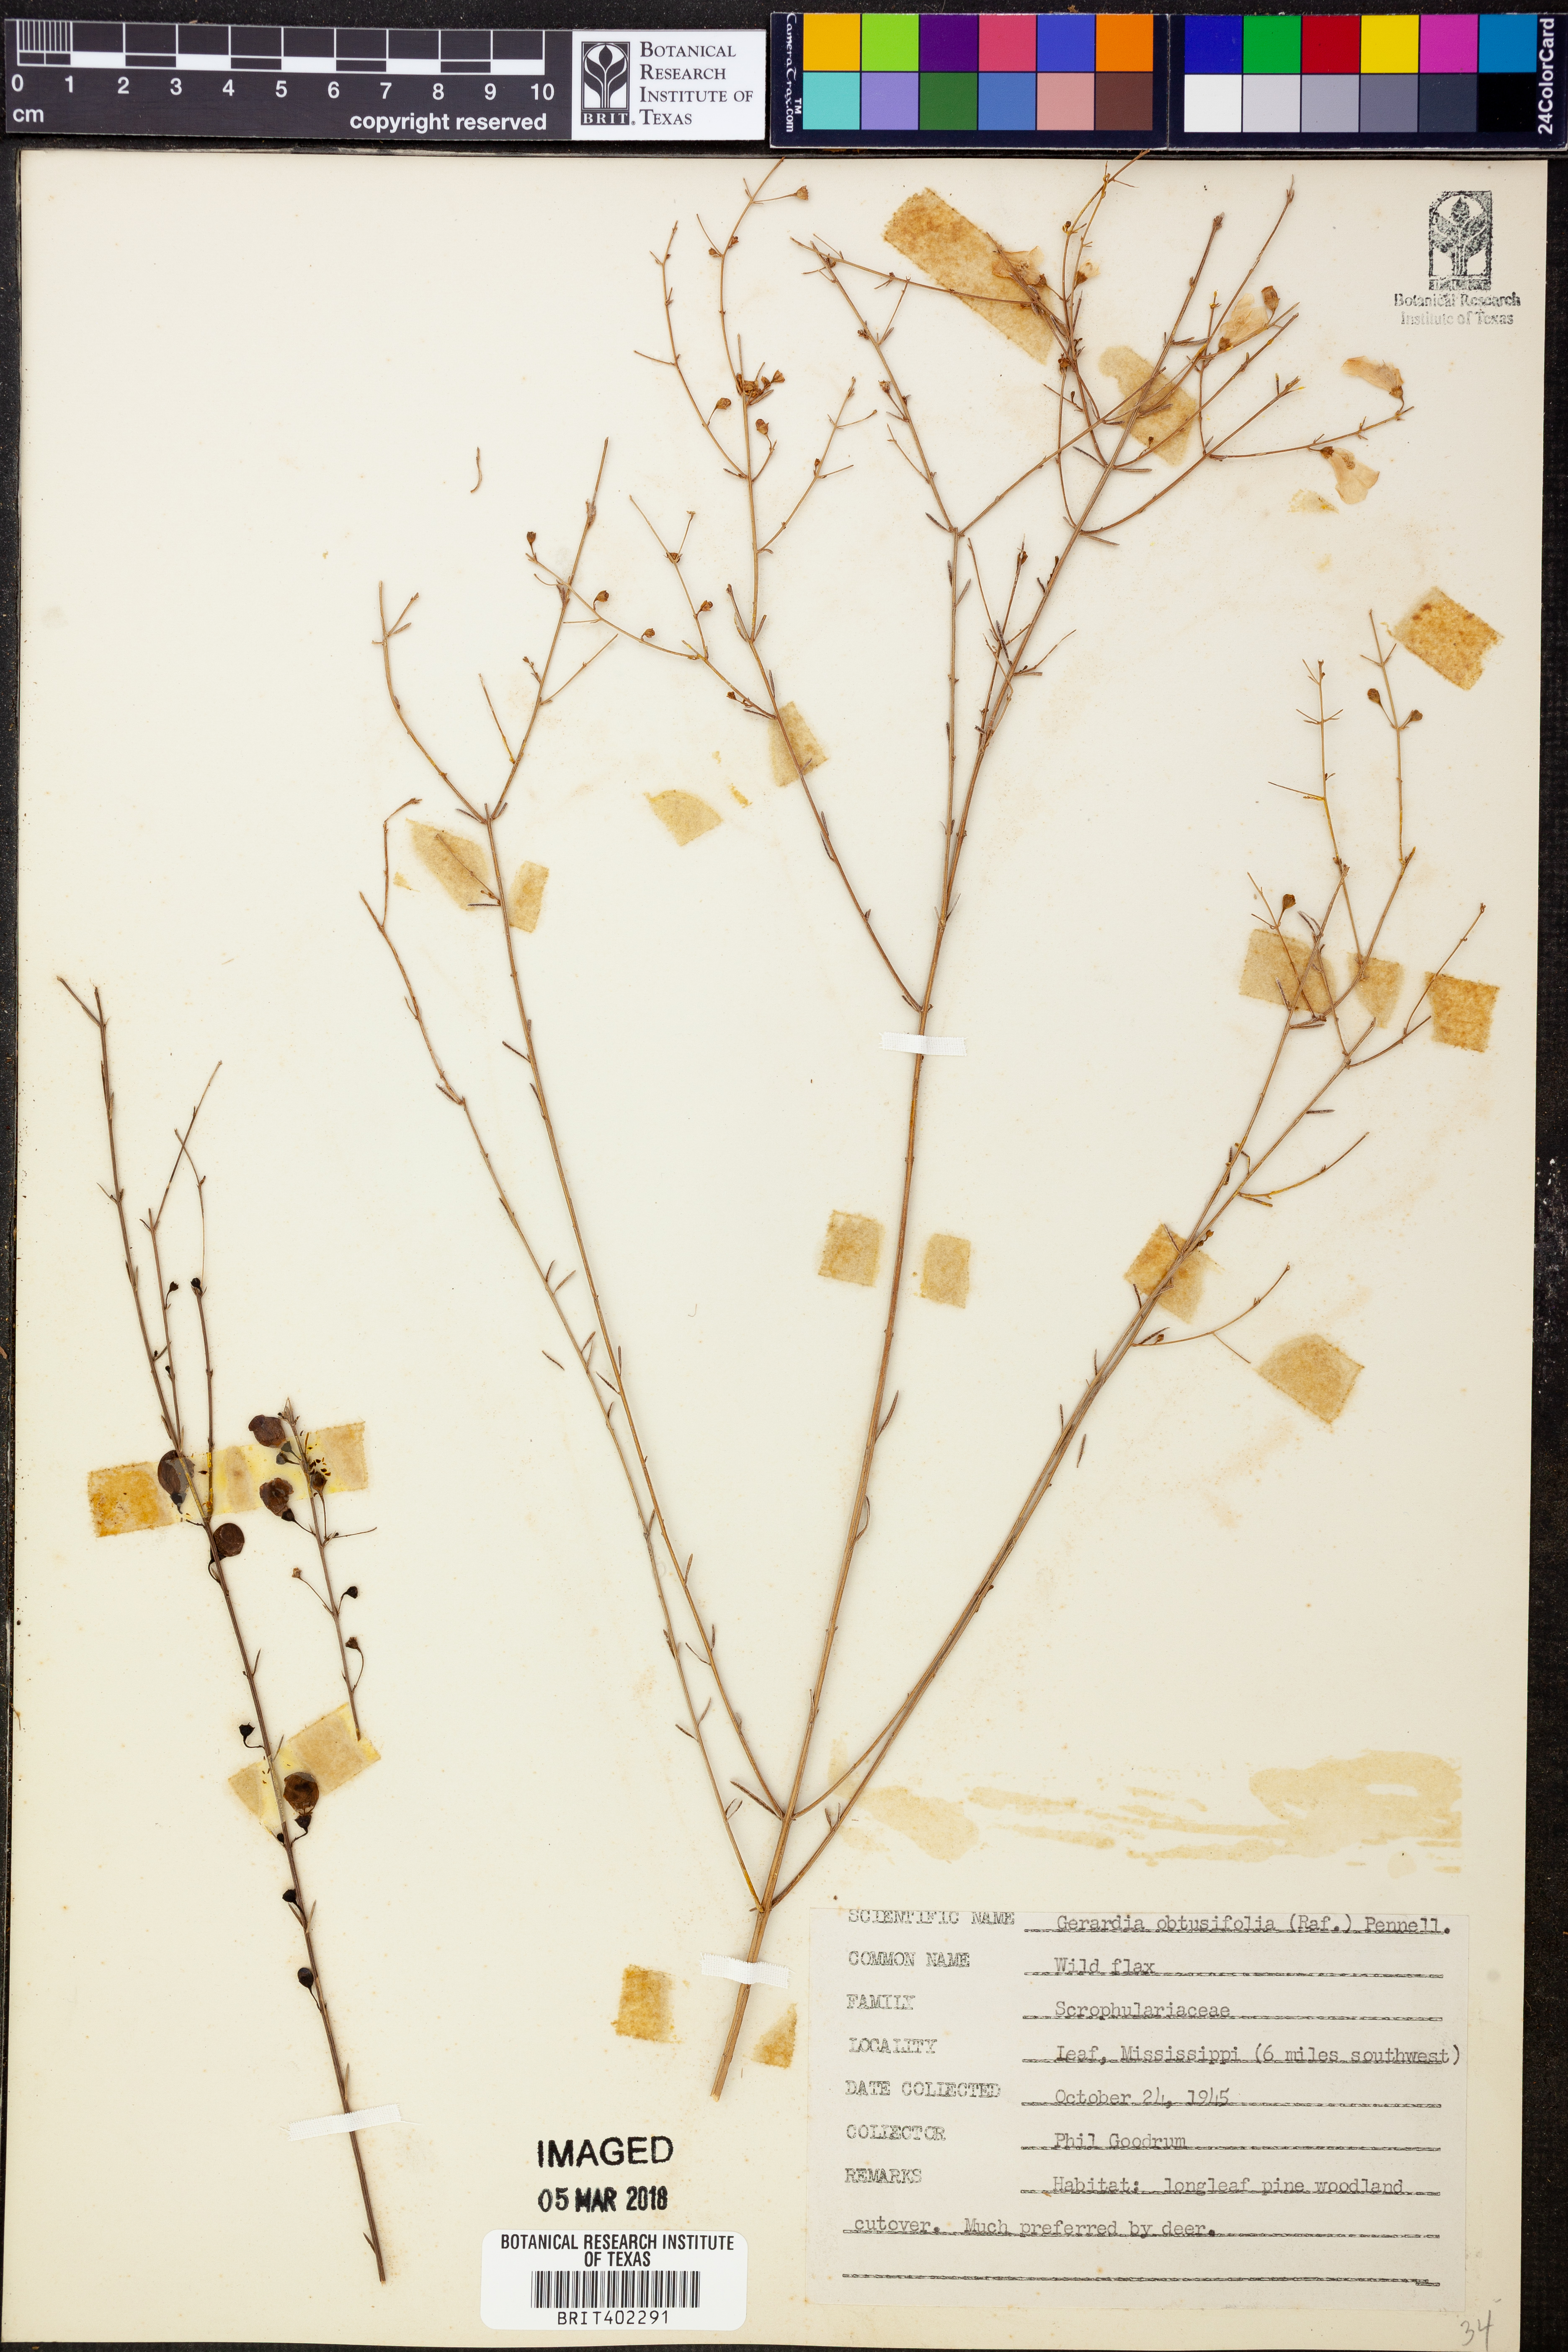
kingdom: Plantae
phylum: Tracheophyta
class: Magnoliopsida
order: Lamiales
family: Orobanchaceae
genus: Agalinis
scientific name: Agalinis obtusifolia
